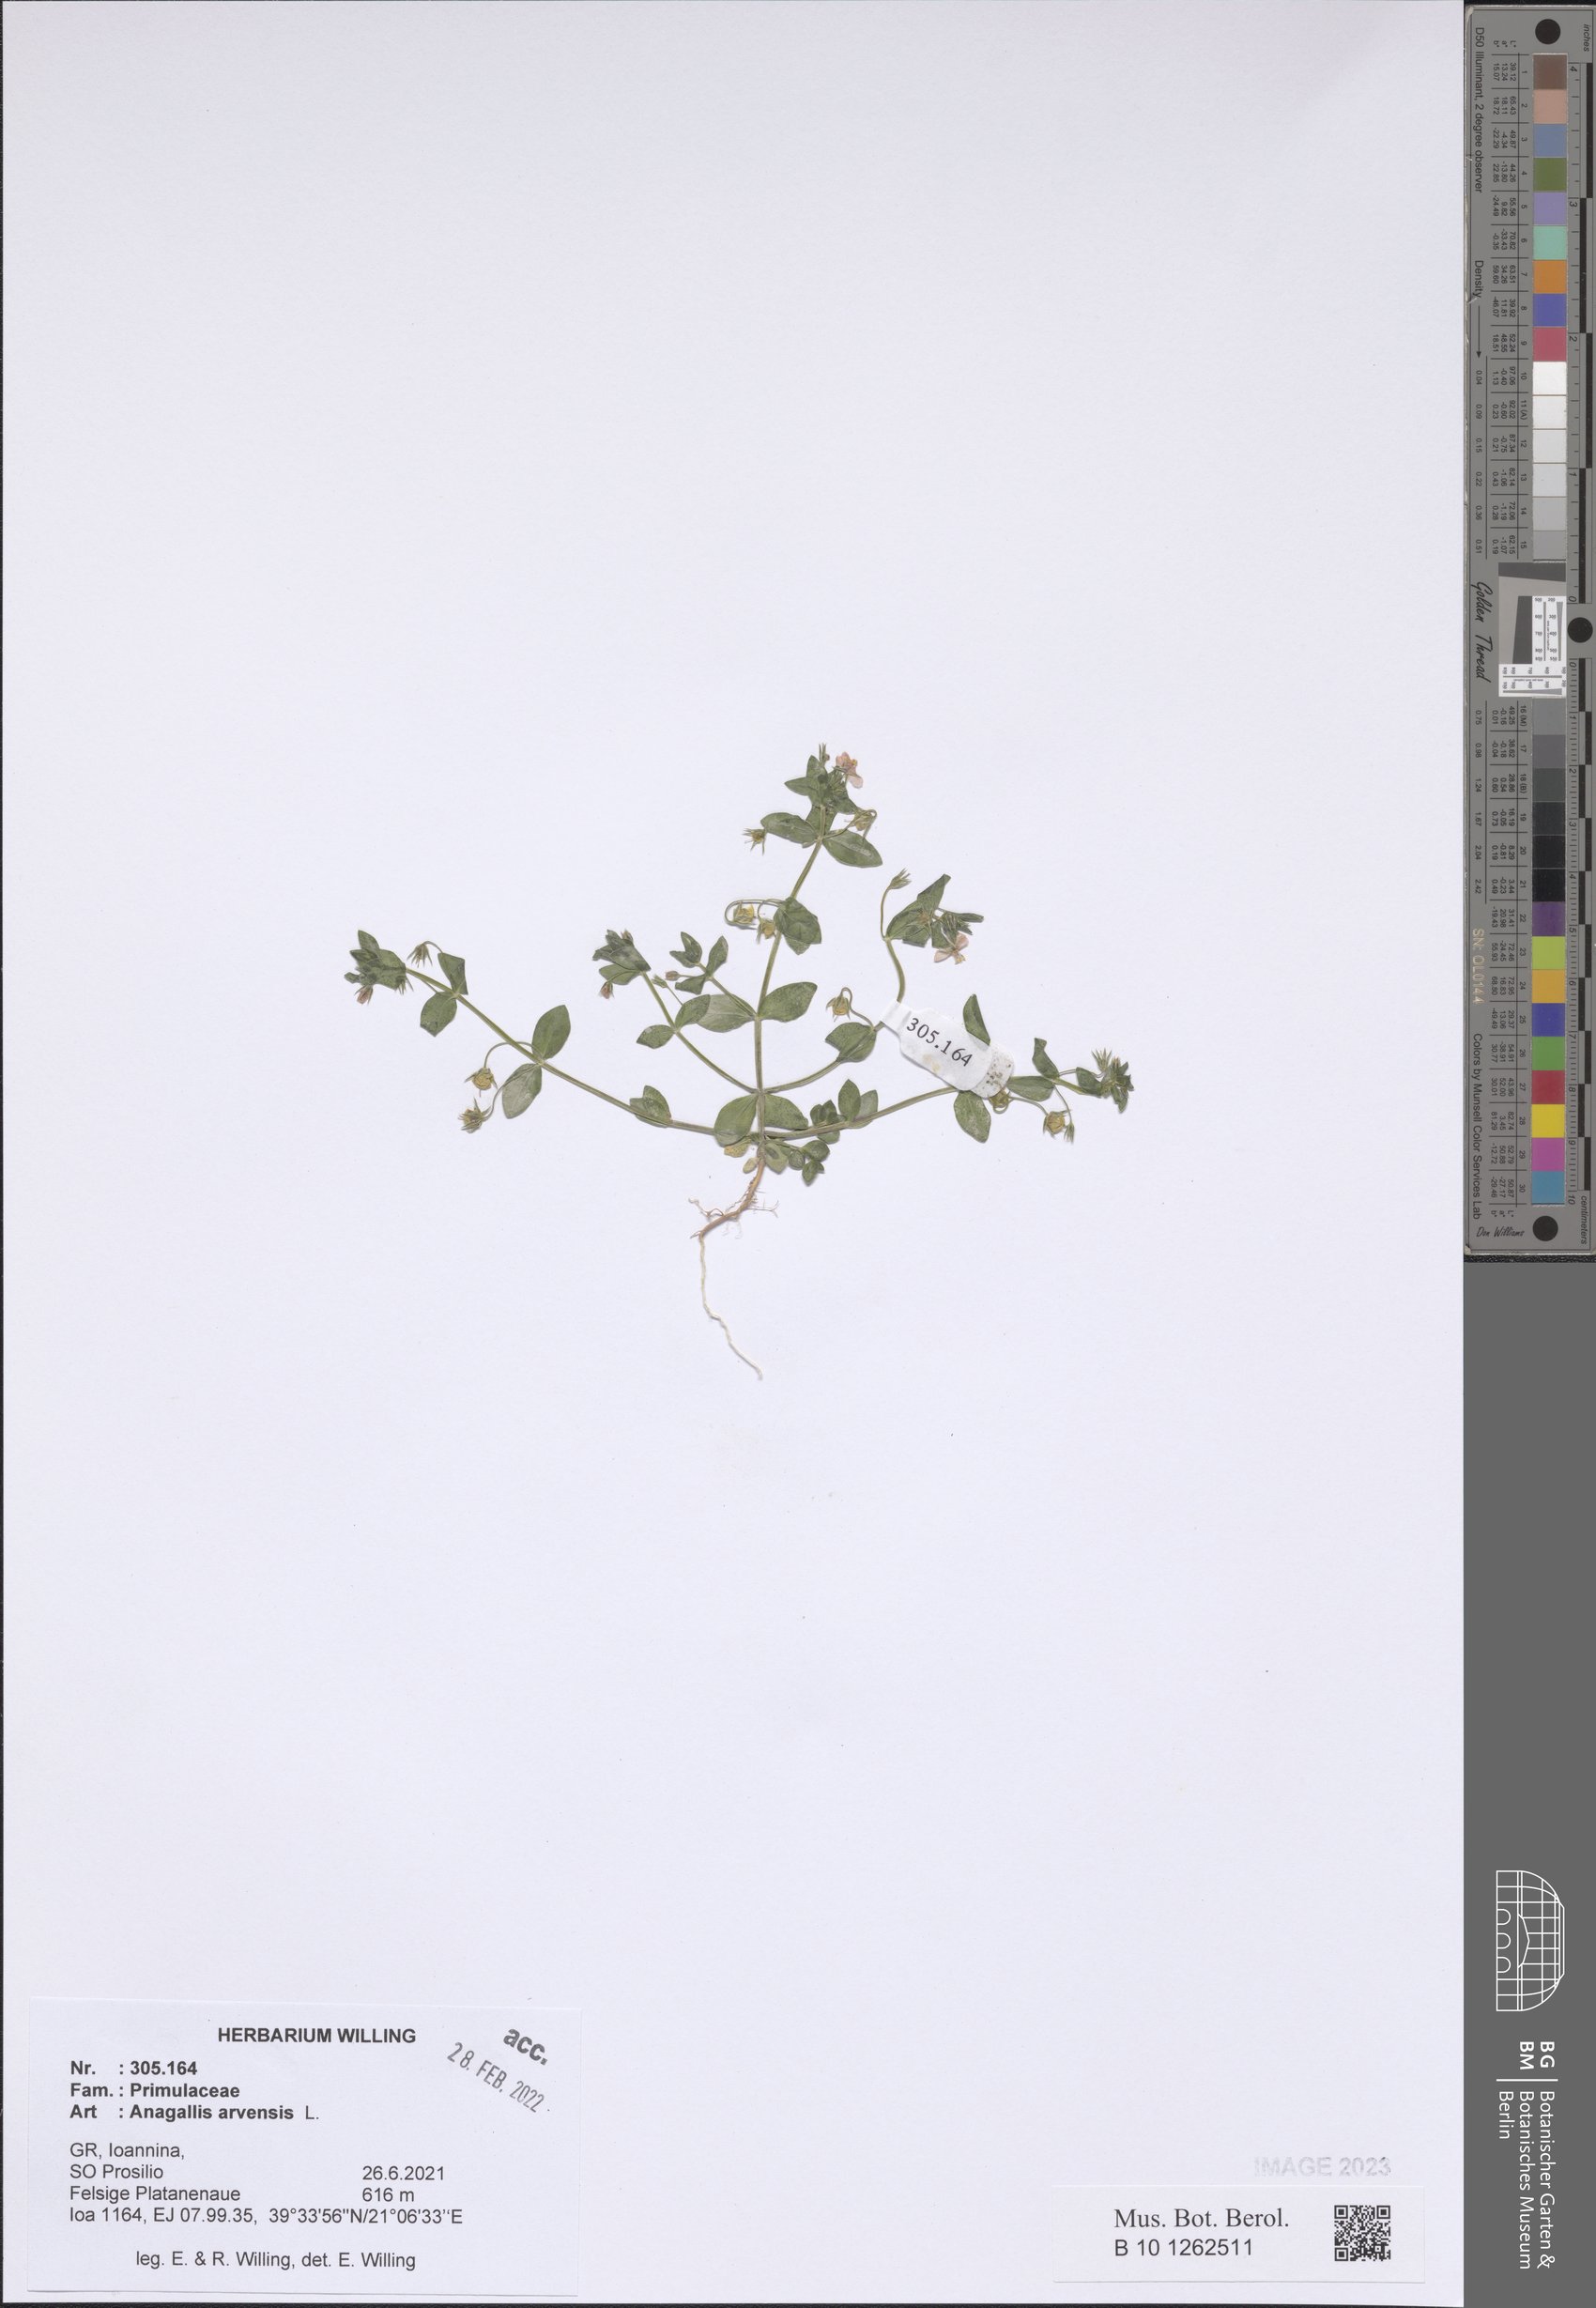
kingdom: Plantae
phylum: Tracheophyta
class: Magnoliopsida
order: Ericales
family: Primulaceae
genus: Lysimachia
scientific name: Lysimachia arvensis
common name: Scarlet pimpernel
